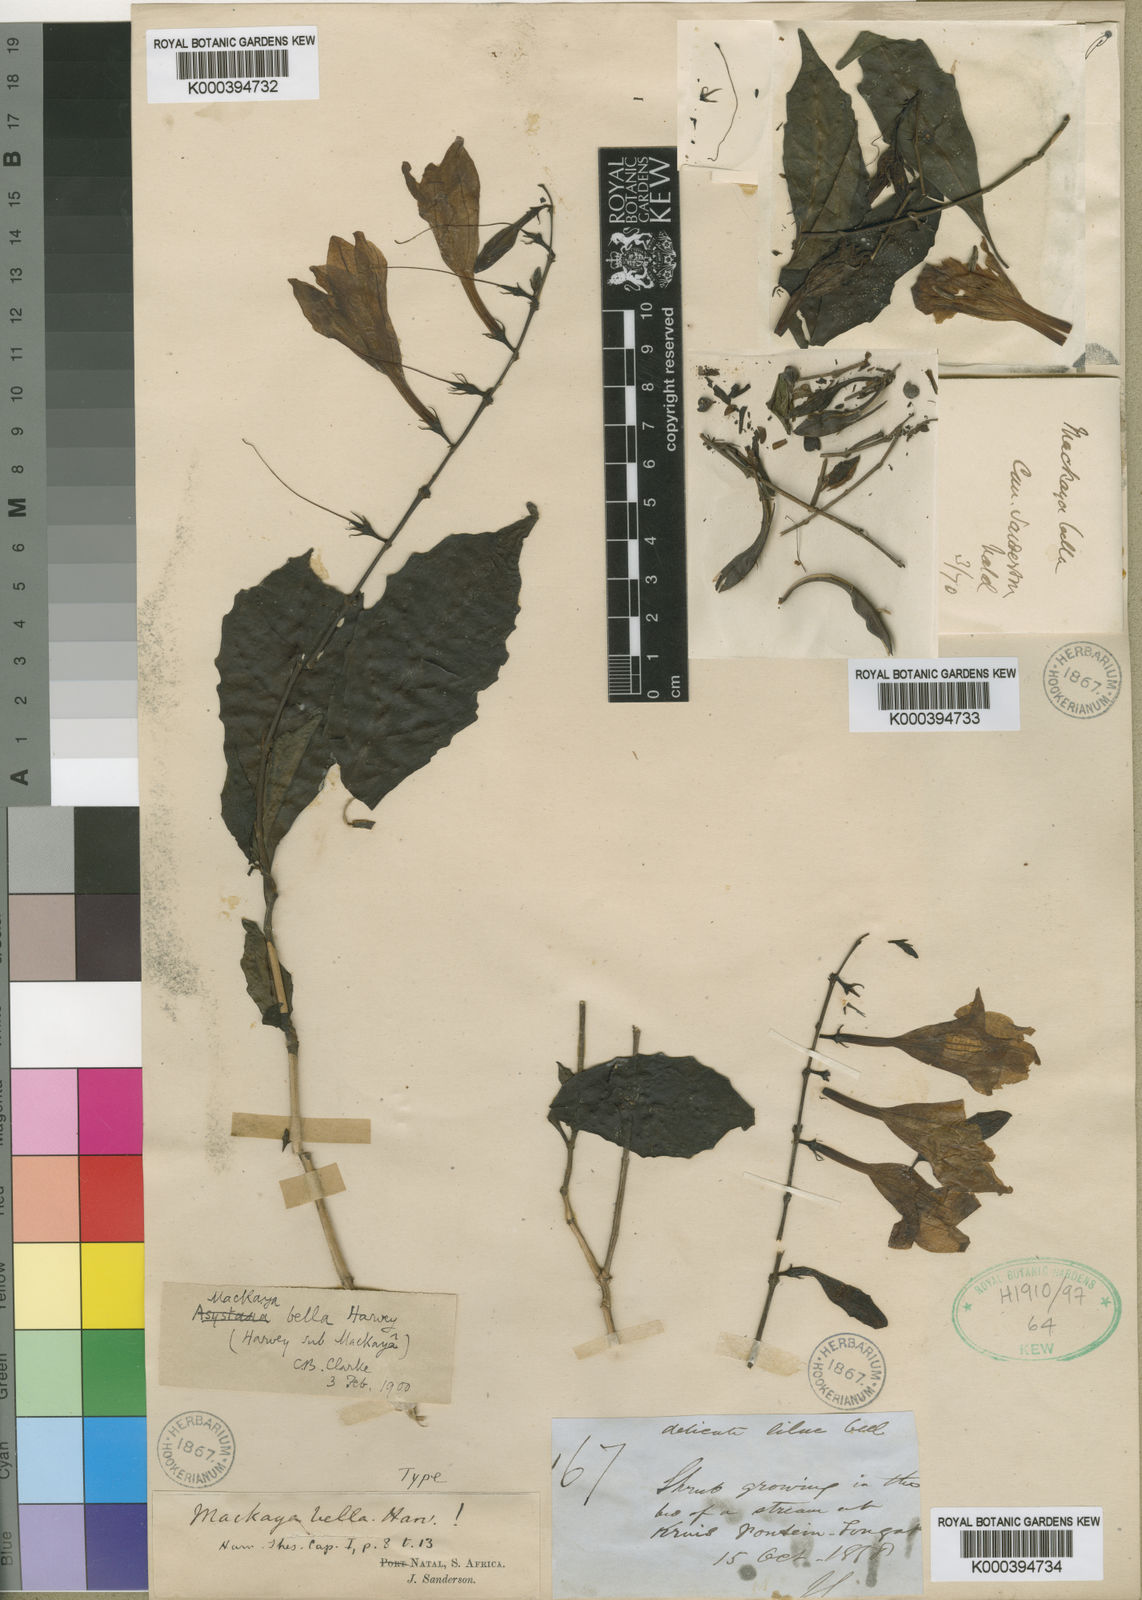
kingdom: Plantae
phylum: Tracheophyta
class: Magnoliopsida
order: Lamiales
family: Acanthaceae
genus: Mackaya
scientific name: Mackaya bella
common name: Forest bell-bush
